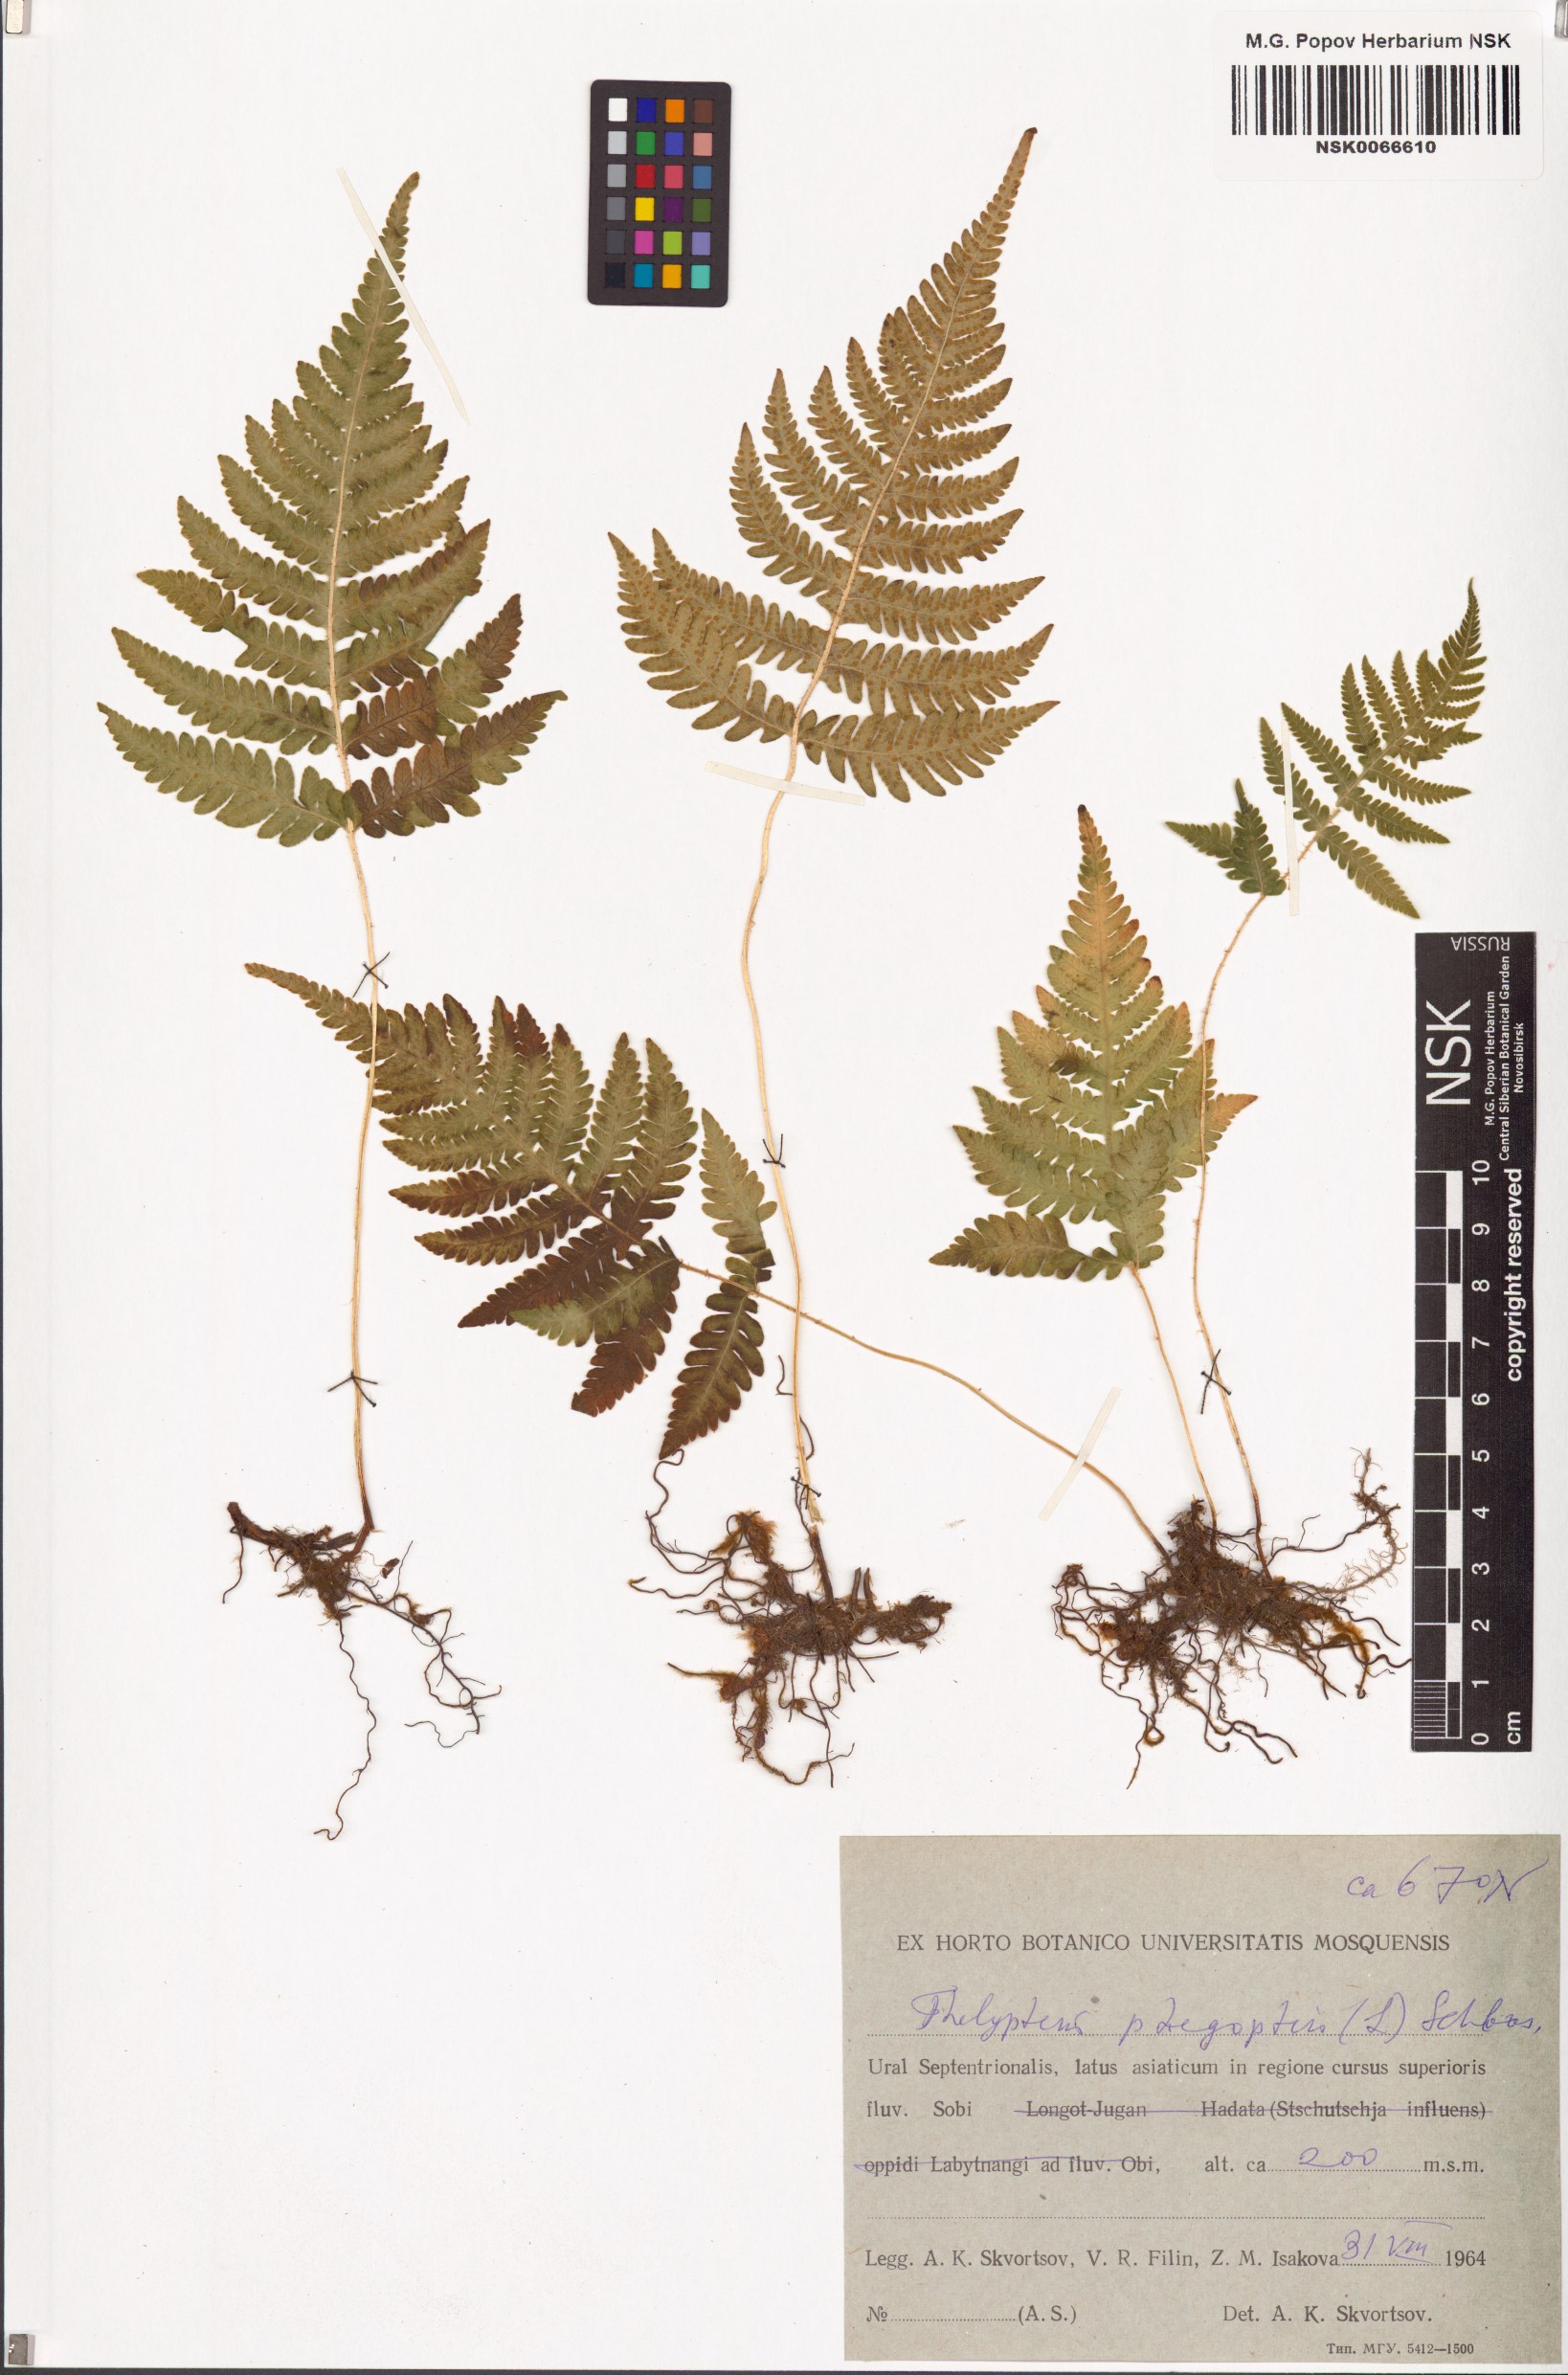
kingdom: Plantae
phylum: Tracheophyta
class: Polypodiopsida
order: Polypodiales
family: Thelypteridaceae
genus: Phegopteris
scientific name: Phegopteris connectilis
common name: Beech fern
